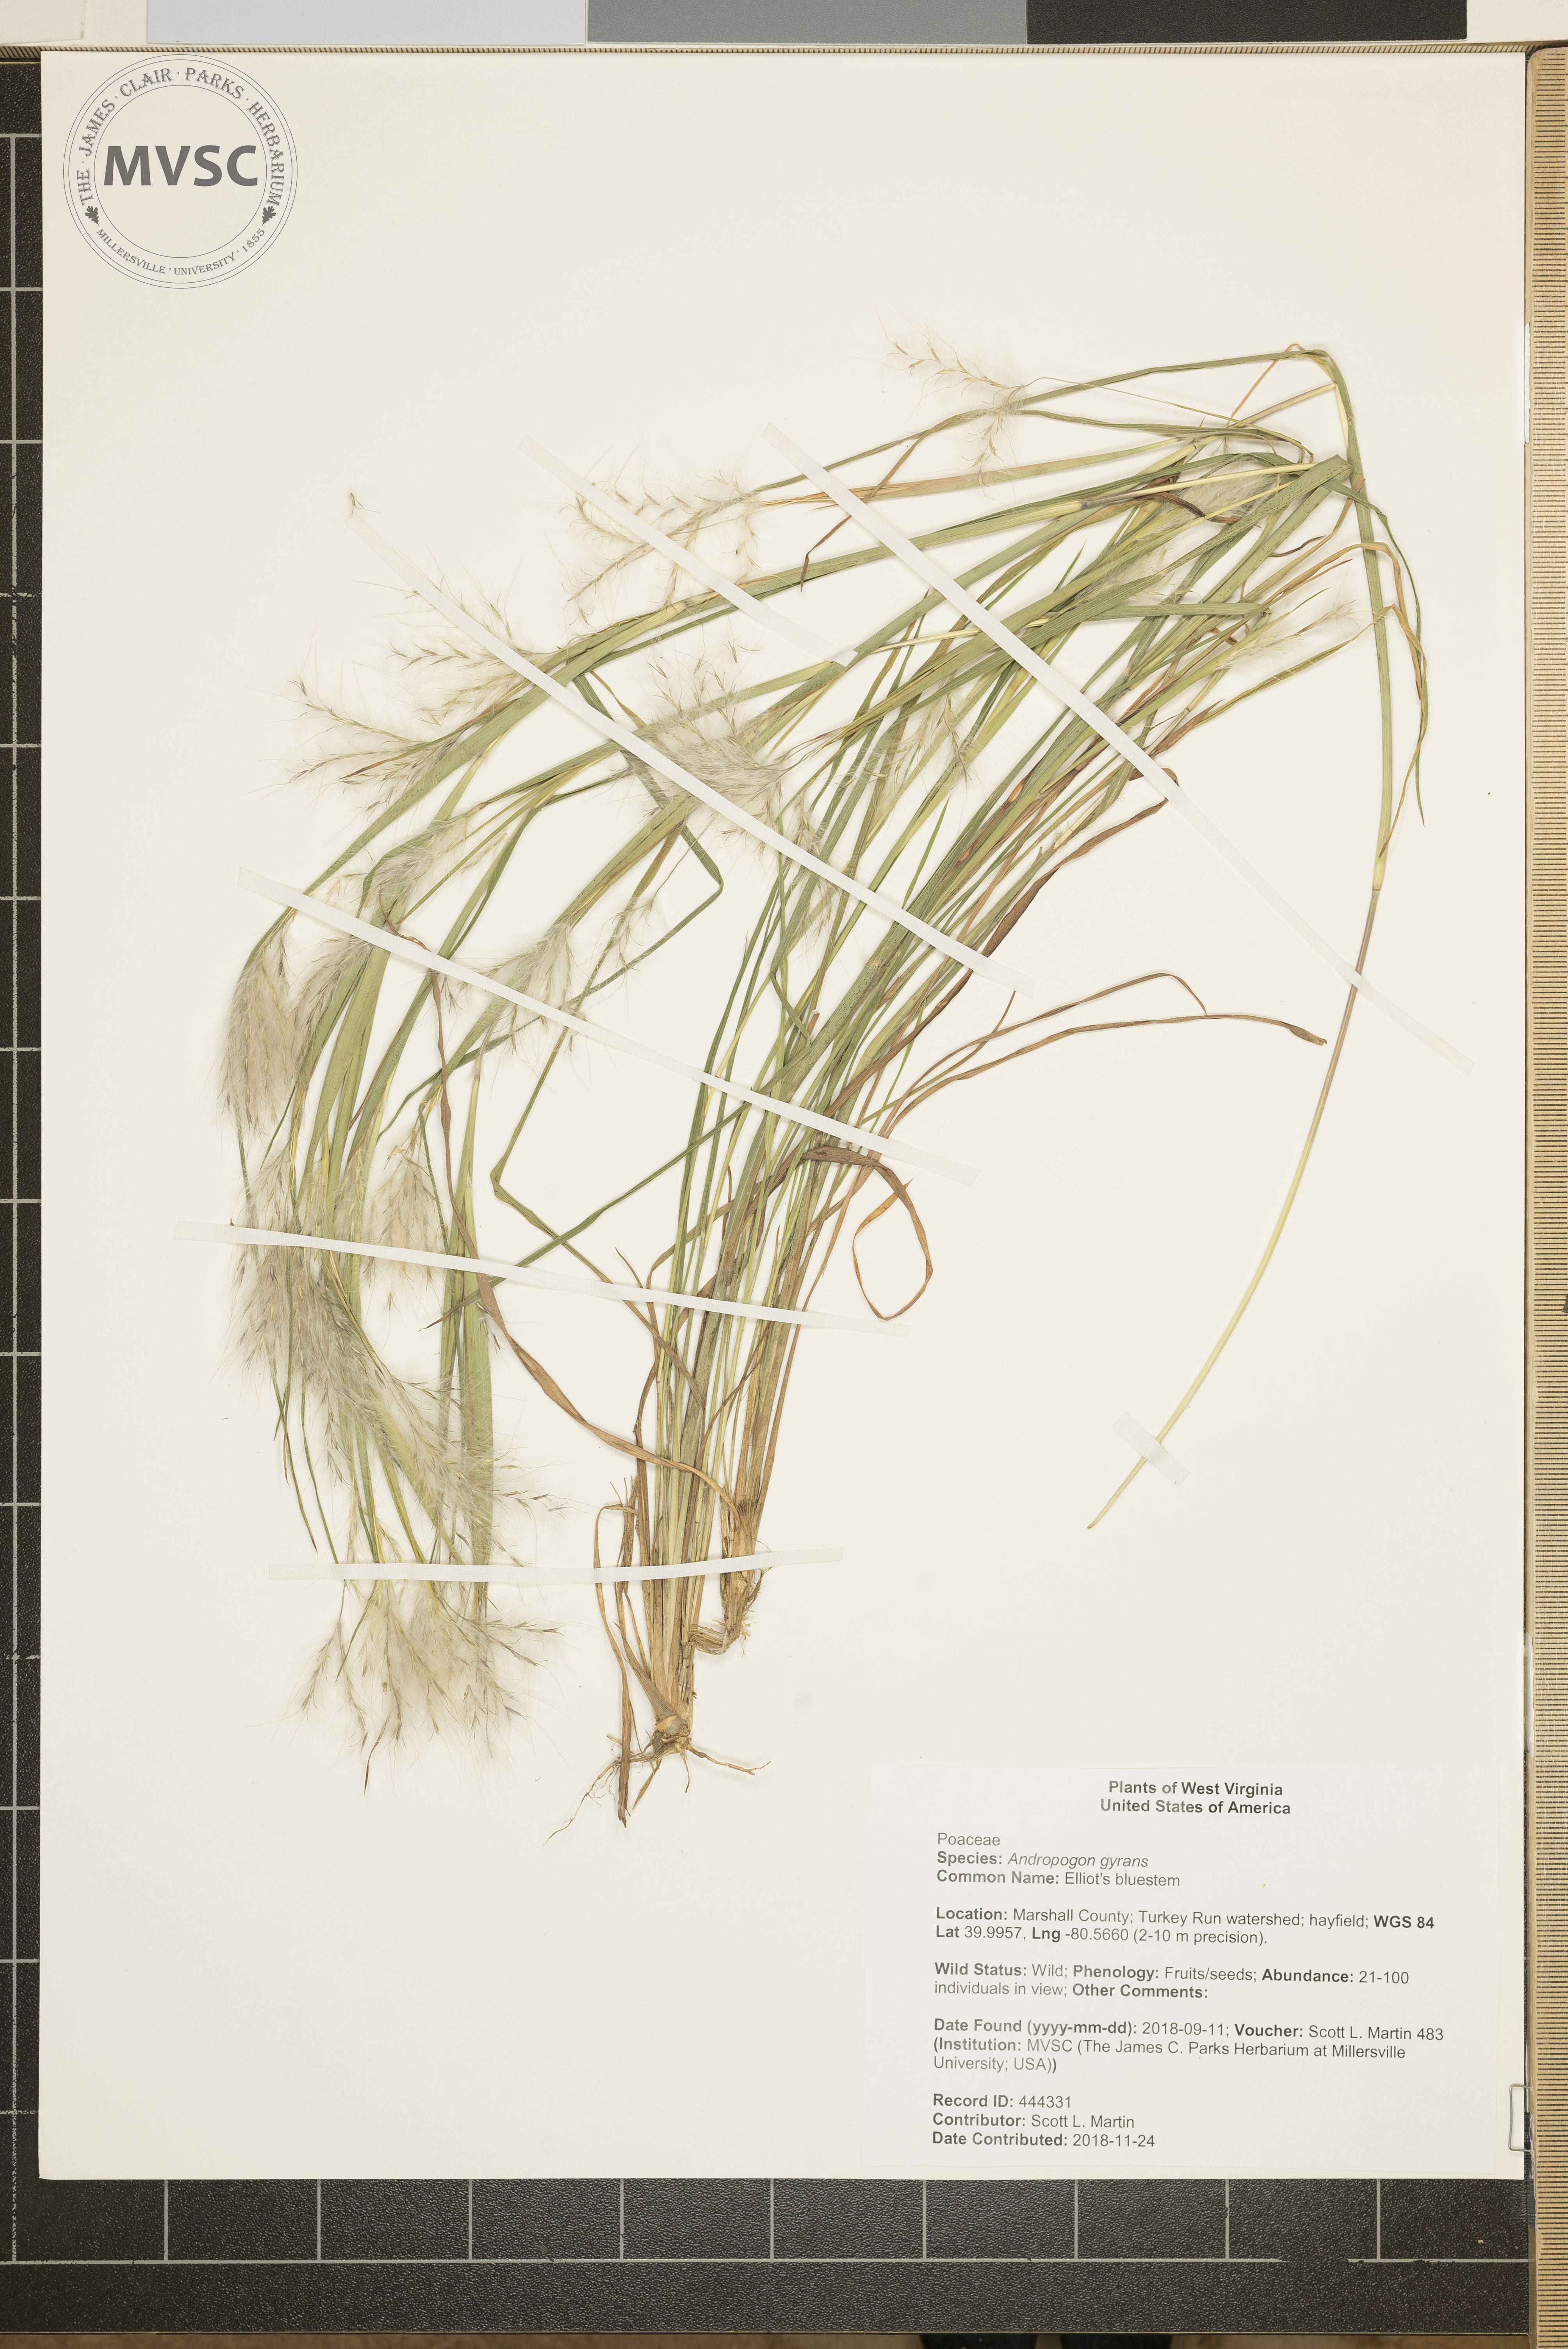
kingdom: Plantae
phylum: Tracheophyta
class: Liliopsida
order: Poales
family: Poaceae
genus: Andropogon
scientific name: Andropogon gyrans
